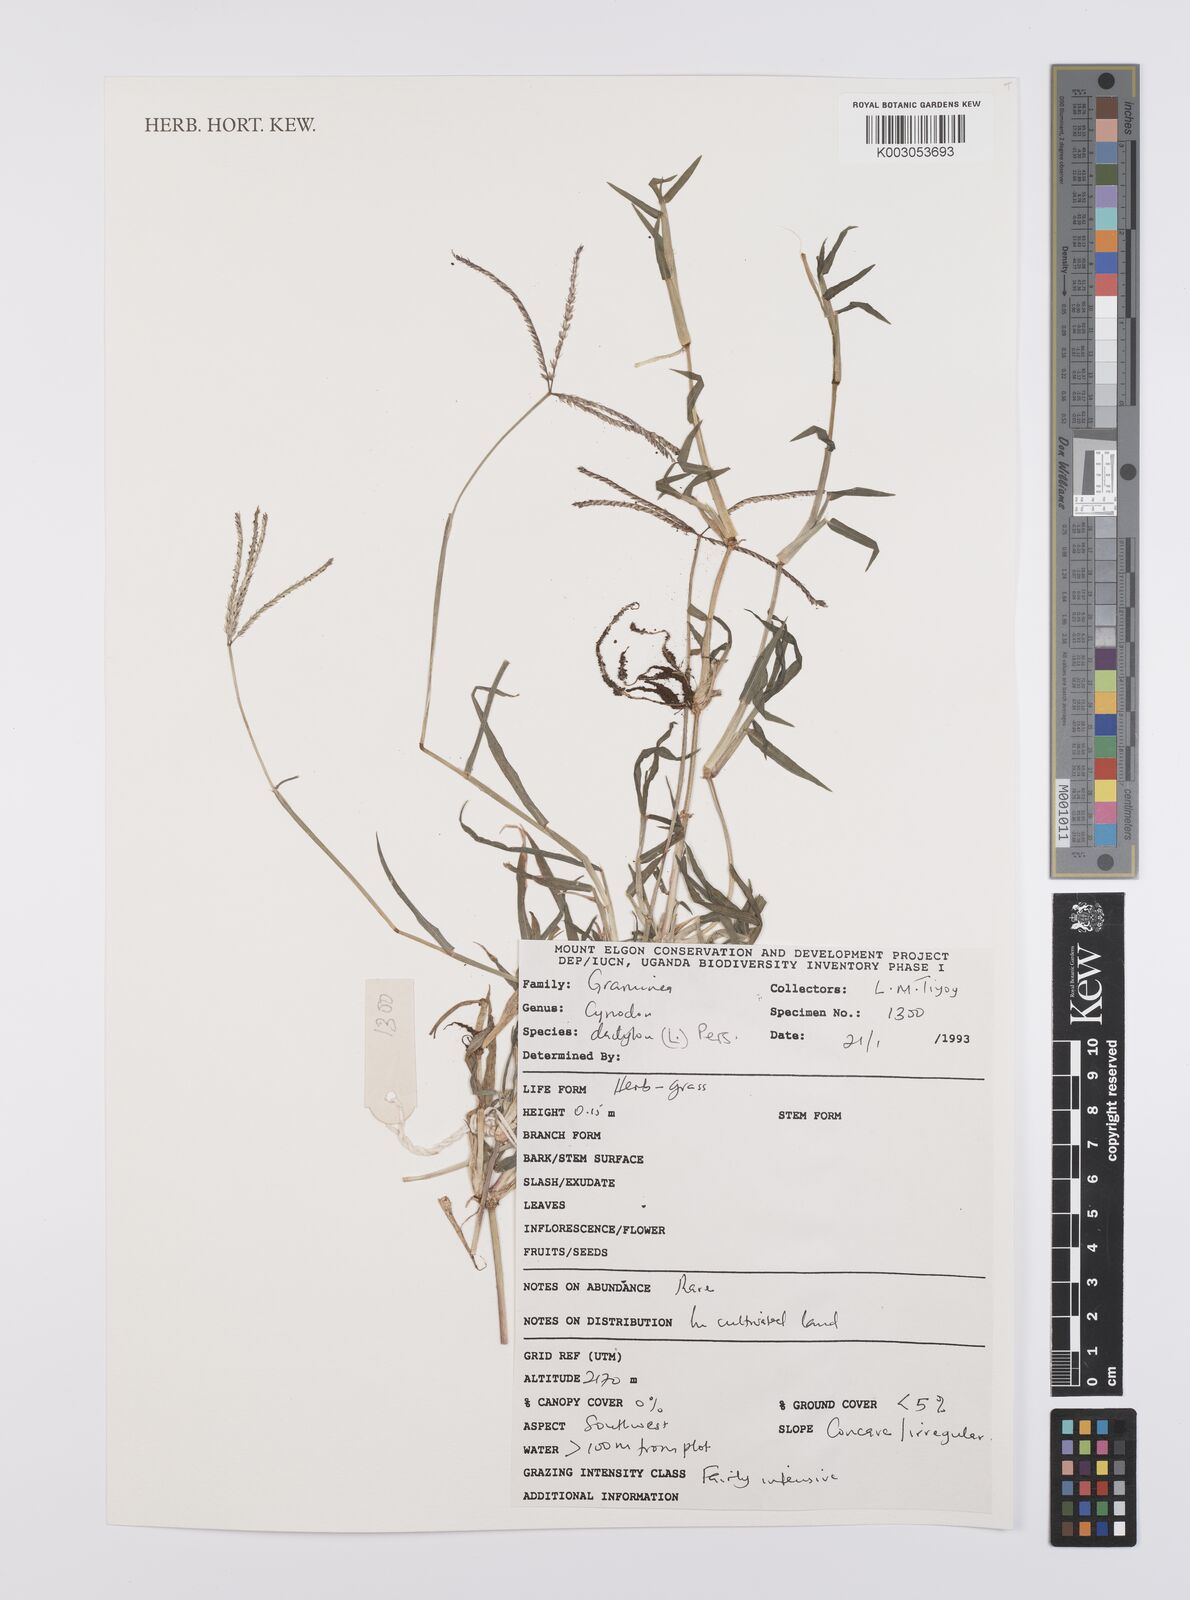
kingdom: Plantae
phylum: Tracheophyta
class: Liliopsida
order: Poales
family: Poaceae
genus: Cynodon
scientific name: Cynodon dactylon
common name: Bermuda grass
